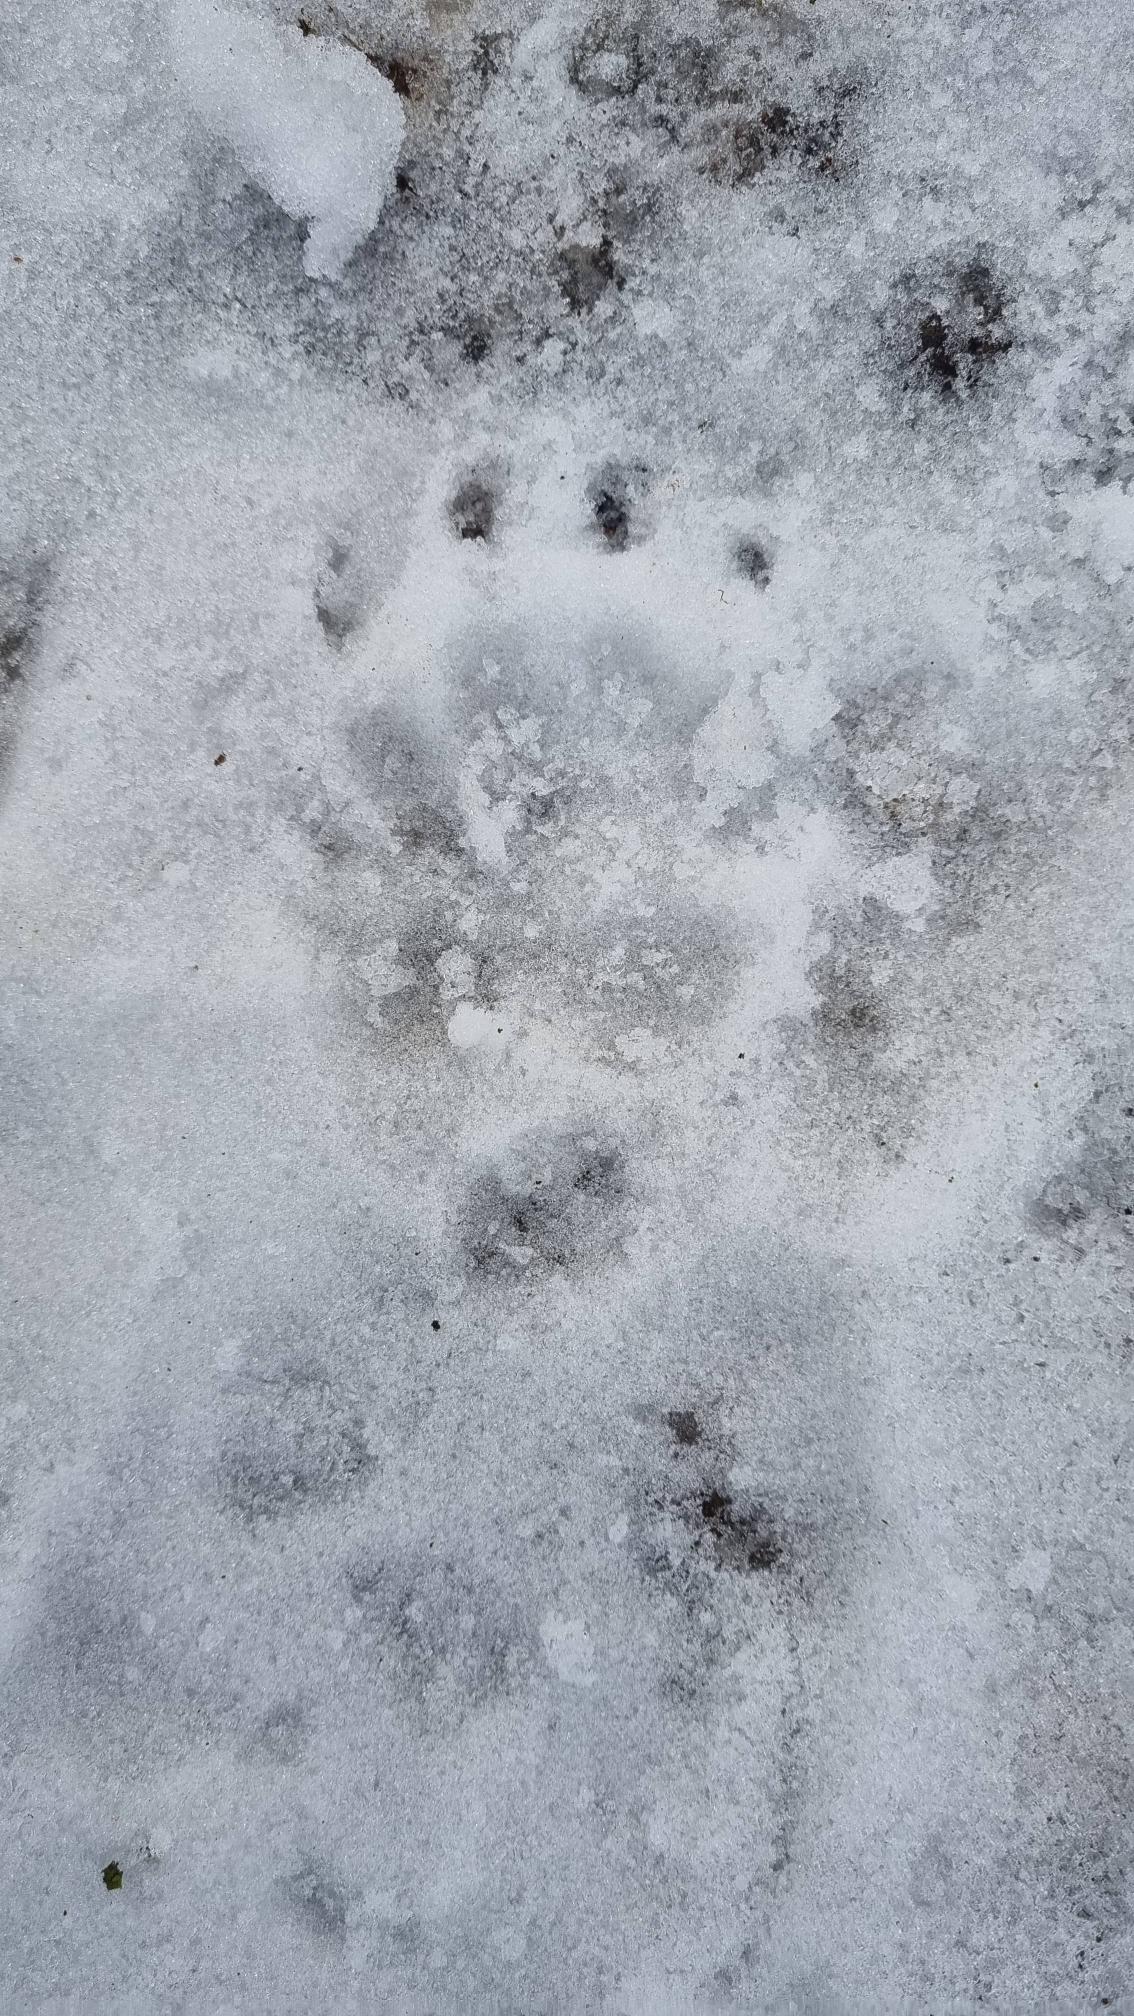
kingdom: Animalia
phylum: Chordata
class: Mammalia
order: Carnivora
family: Mustelidae
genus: Meles
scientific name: Meles meles
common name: Grævling
